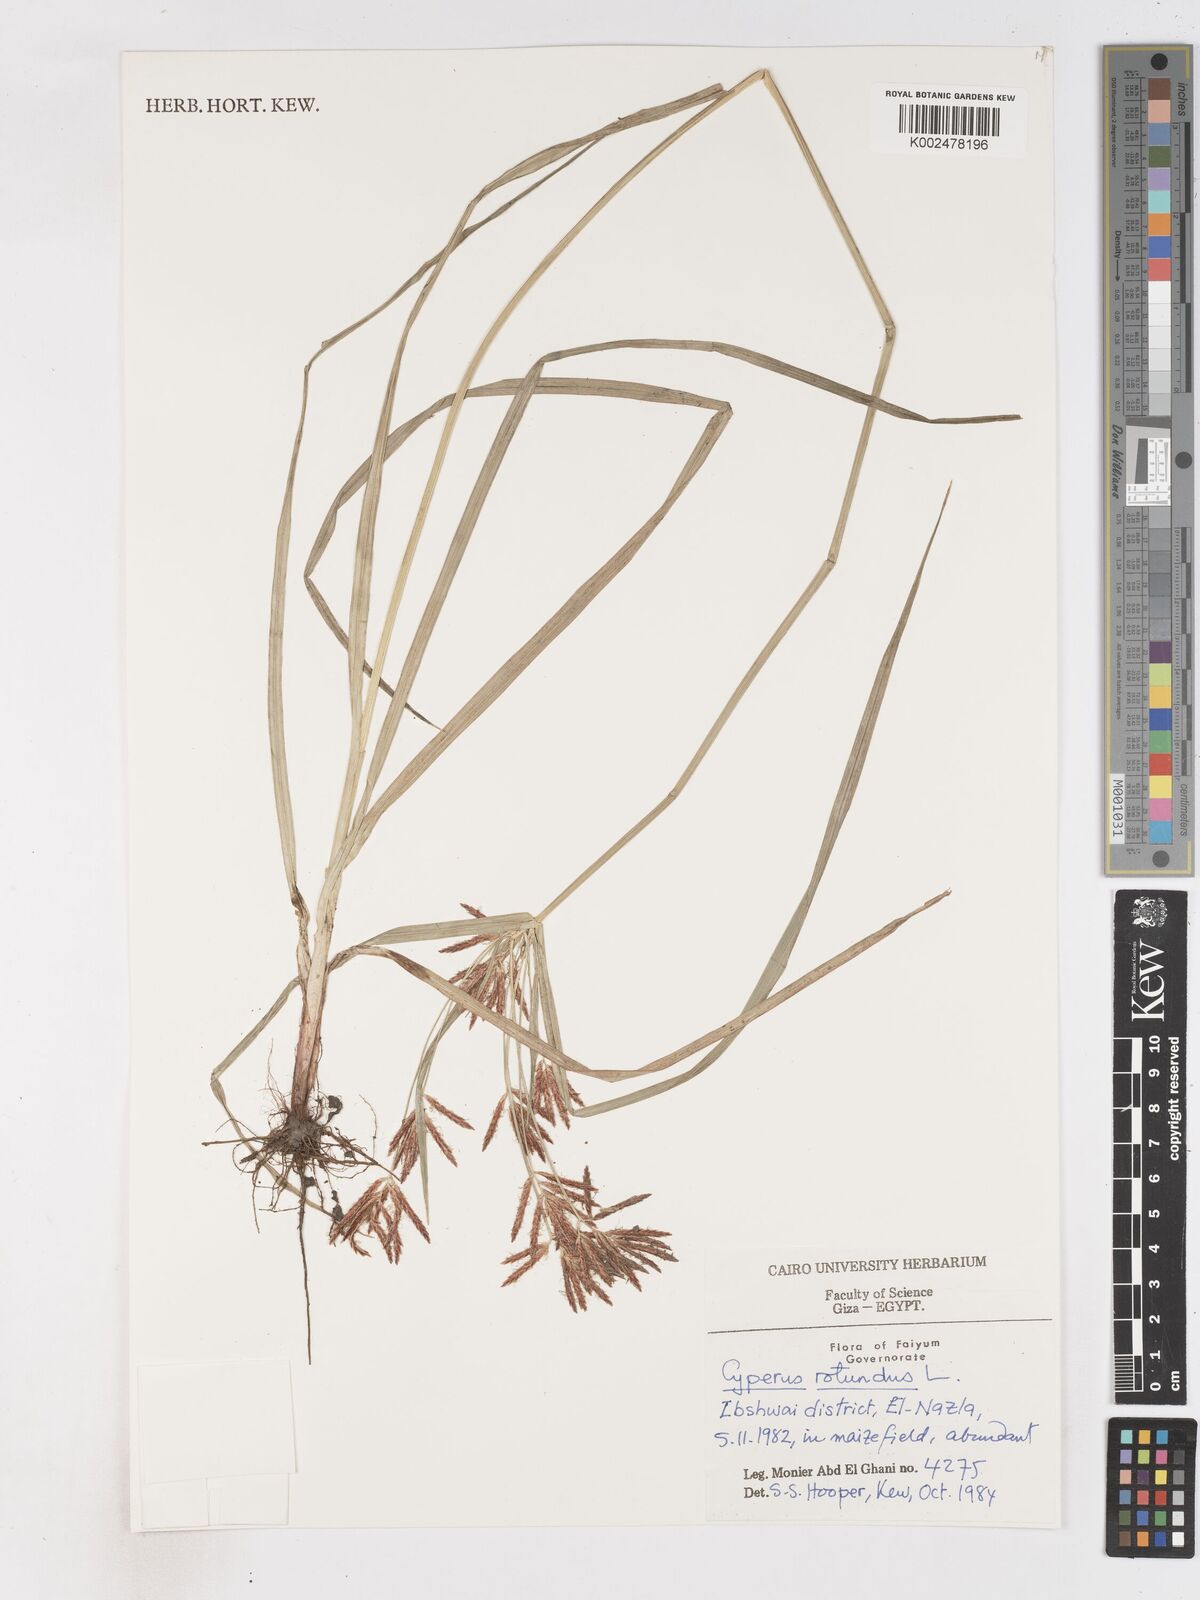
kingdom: Plantae
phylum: Tracheophyta
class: Liliopsida
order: Poales
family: Cyperaceae
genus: Cyperus
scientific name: Cyperus rotundus
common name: Nutgrass
